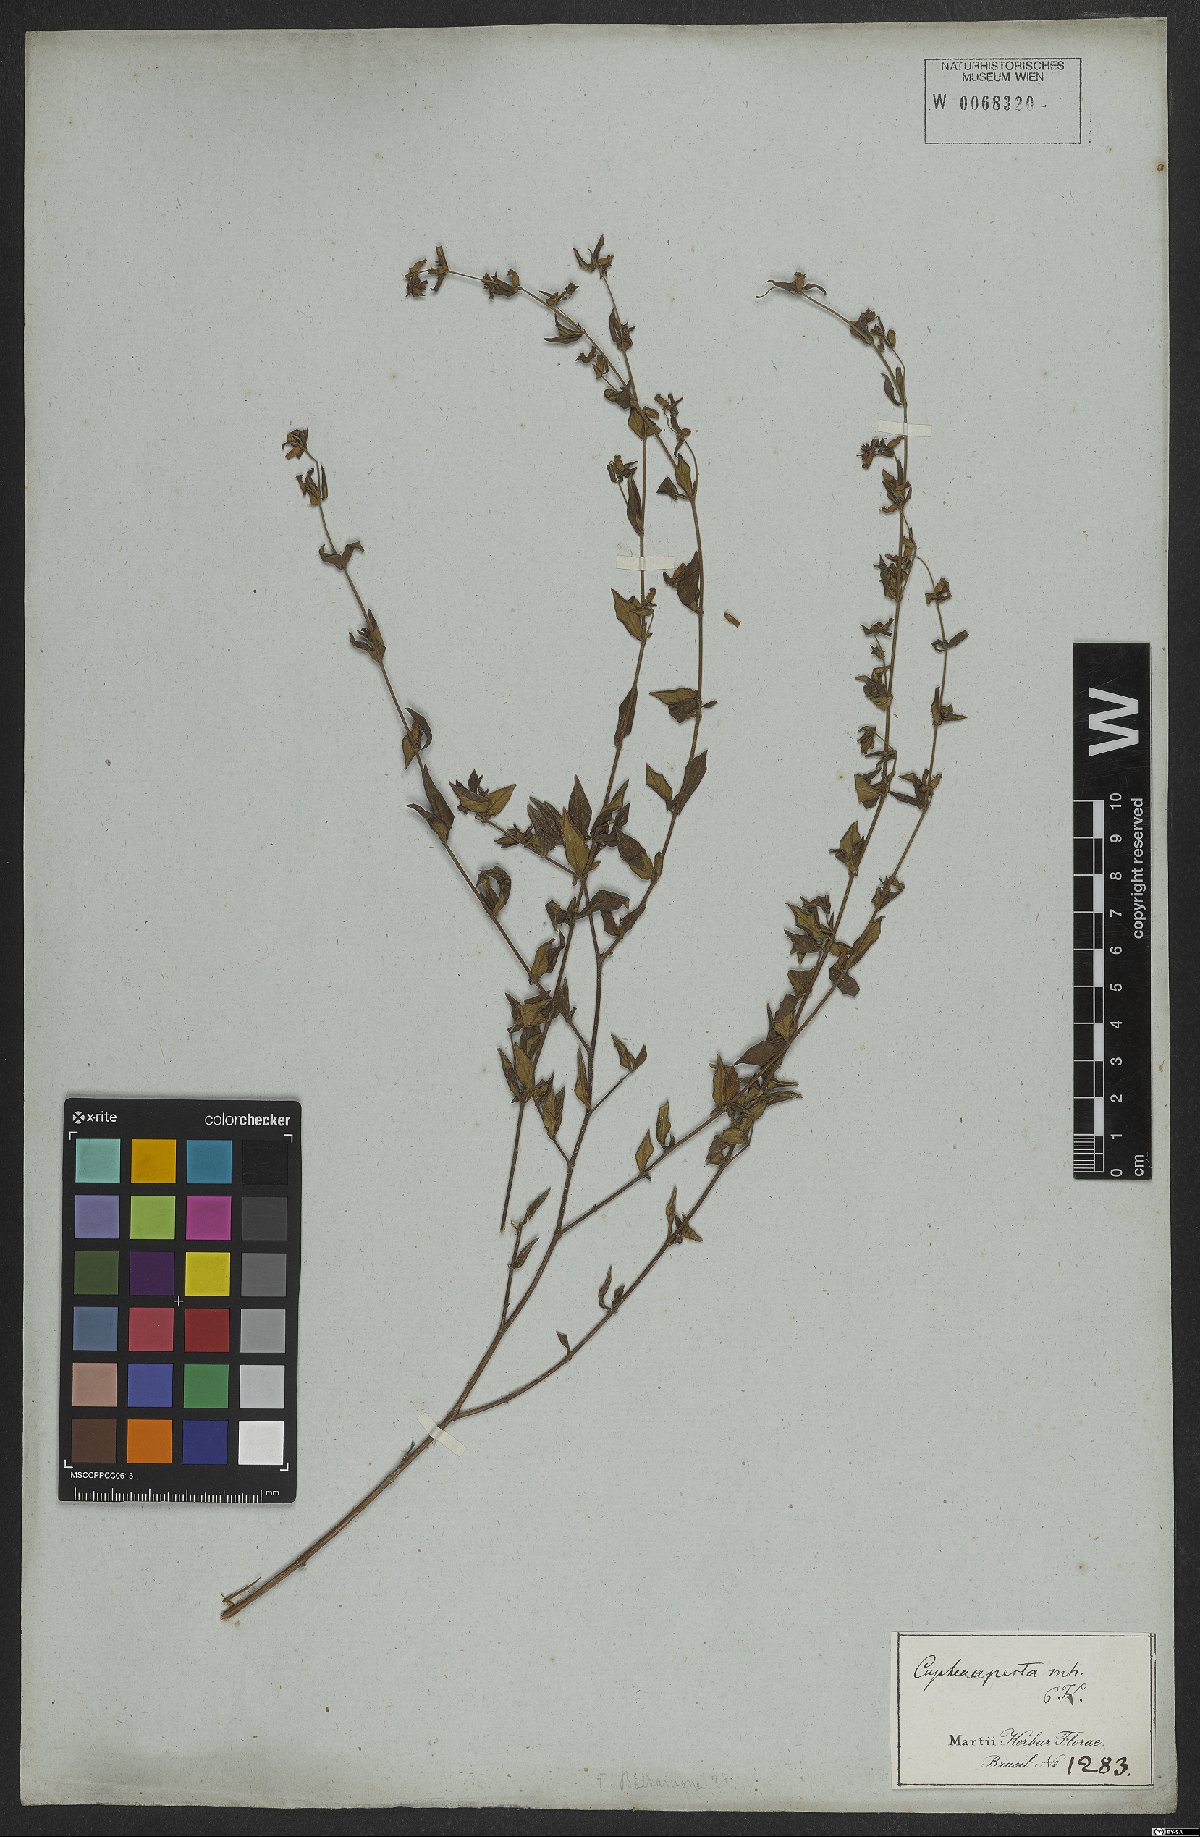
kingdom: Plantae
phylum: Tracheophyta
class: Magnoliopsida
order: Myrtales
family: Lythraceae
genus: Cuphea
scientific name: Cuphea aperta
